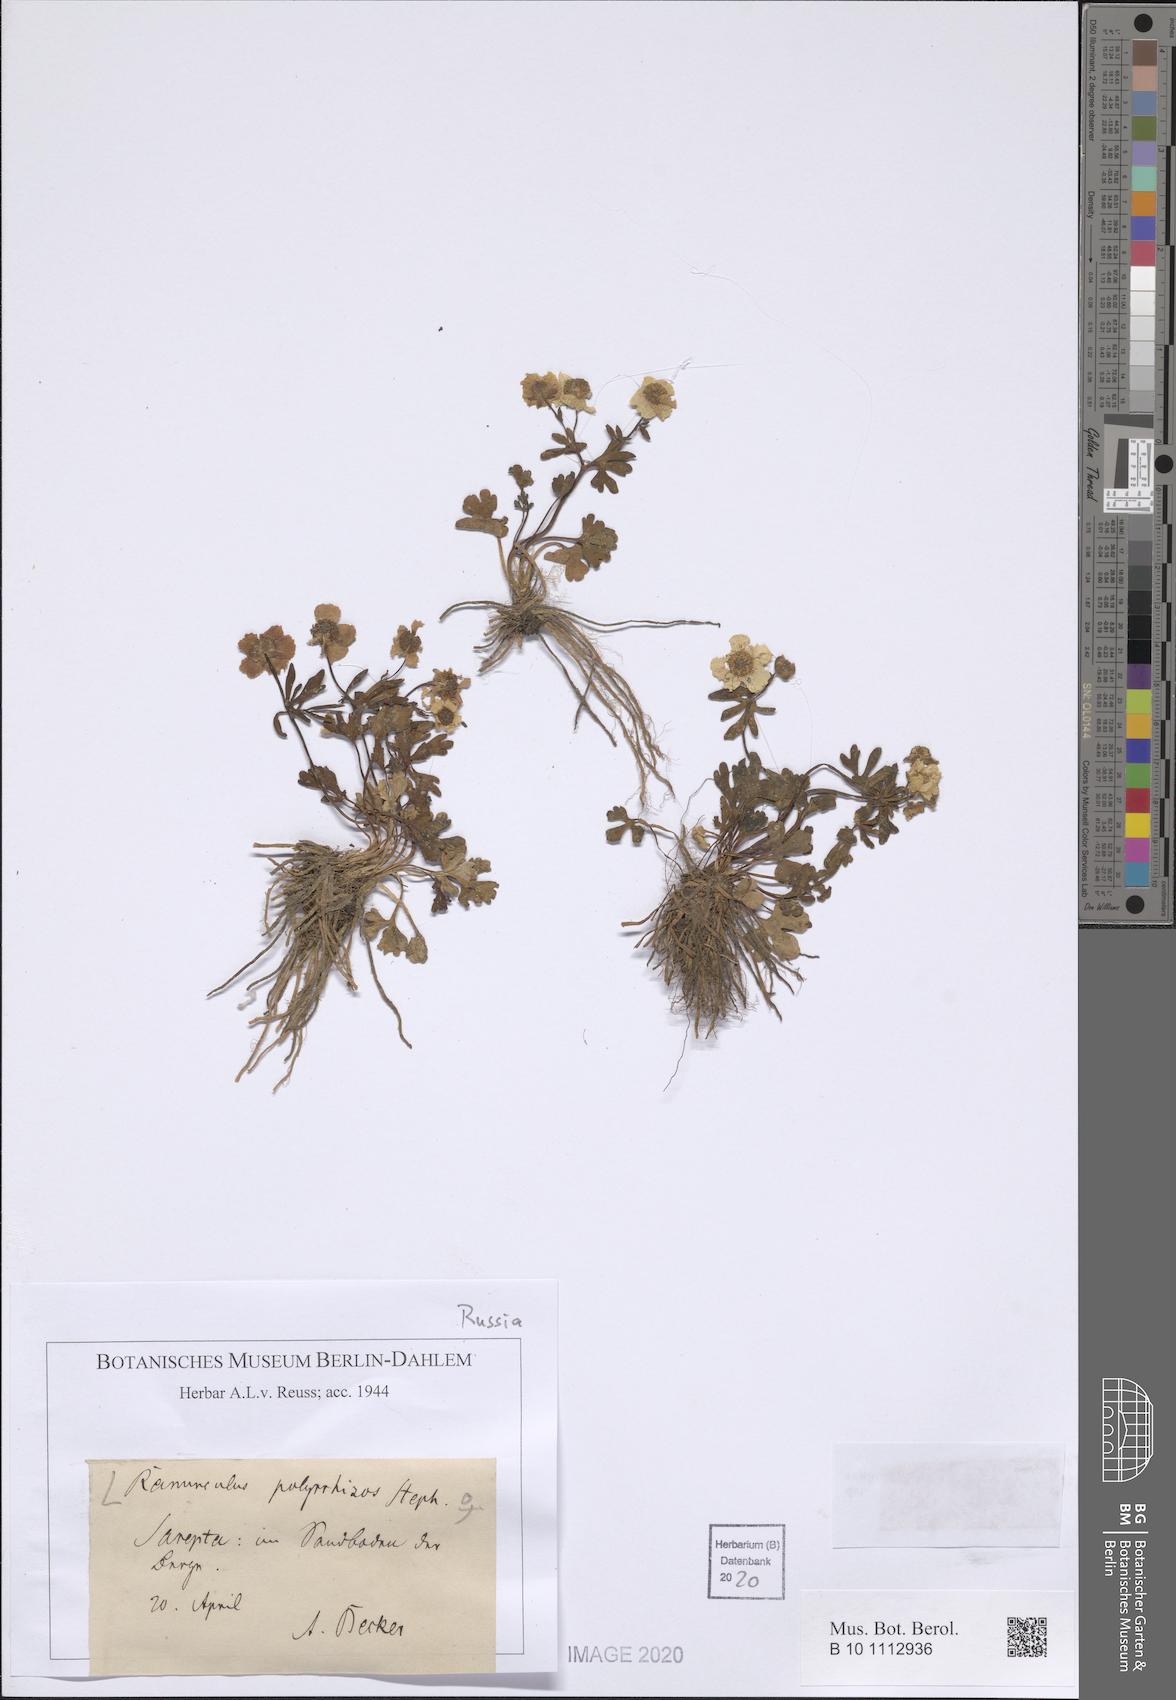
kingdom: Plantae
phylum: Tracheophyta
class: Magnoliopsida
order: Ranunculales
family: Ranunculaceae
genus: Ranunculus
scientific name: Ranunculus polyrhizos
